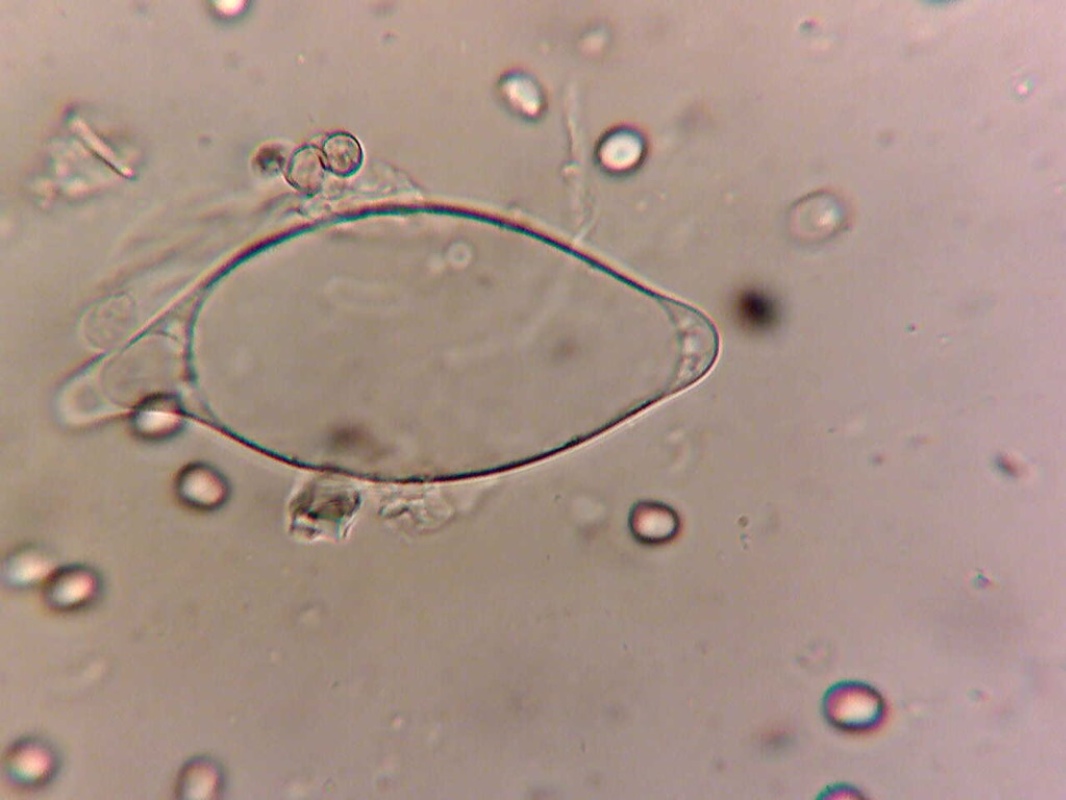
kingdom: Fungi
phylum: Basidiomycota
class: Agaricomycetes
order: Agaricales
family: Pluteaceae
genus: Pluteus
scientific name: Pluteus podospileus
